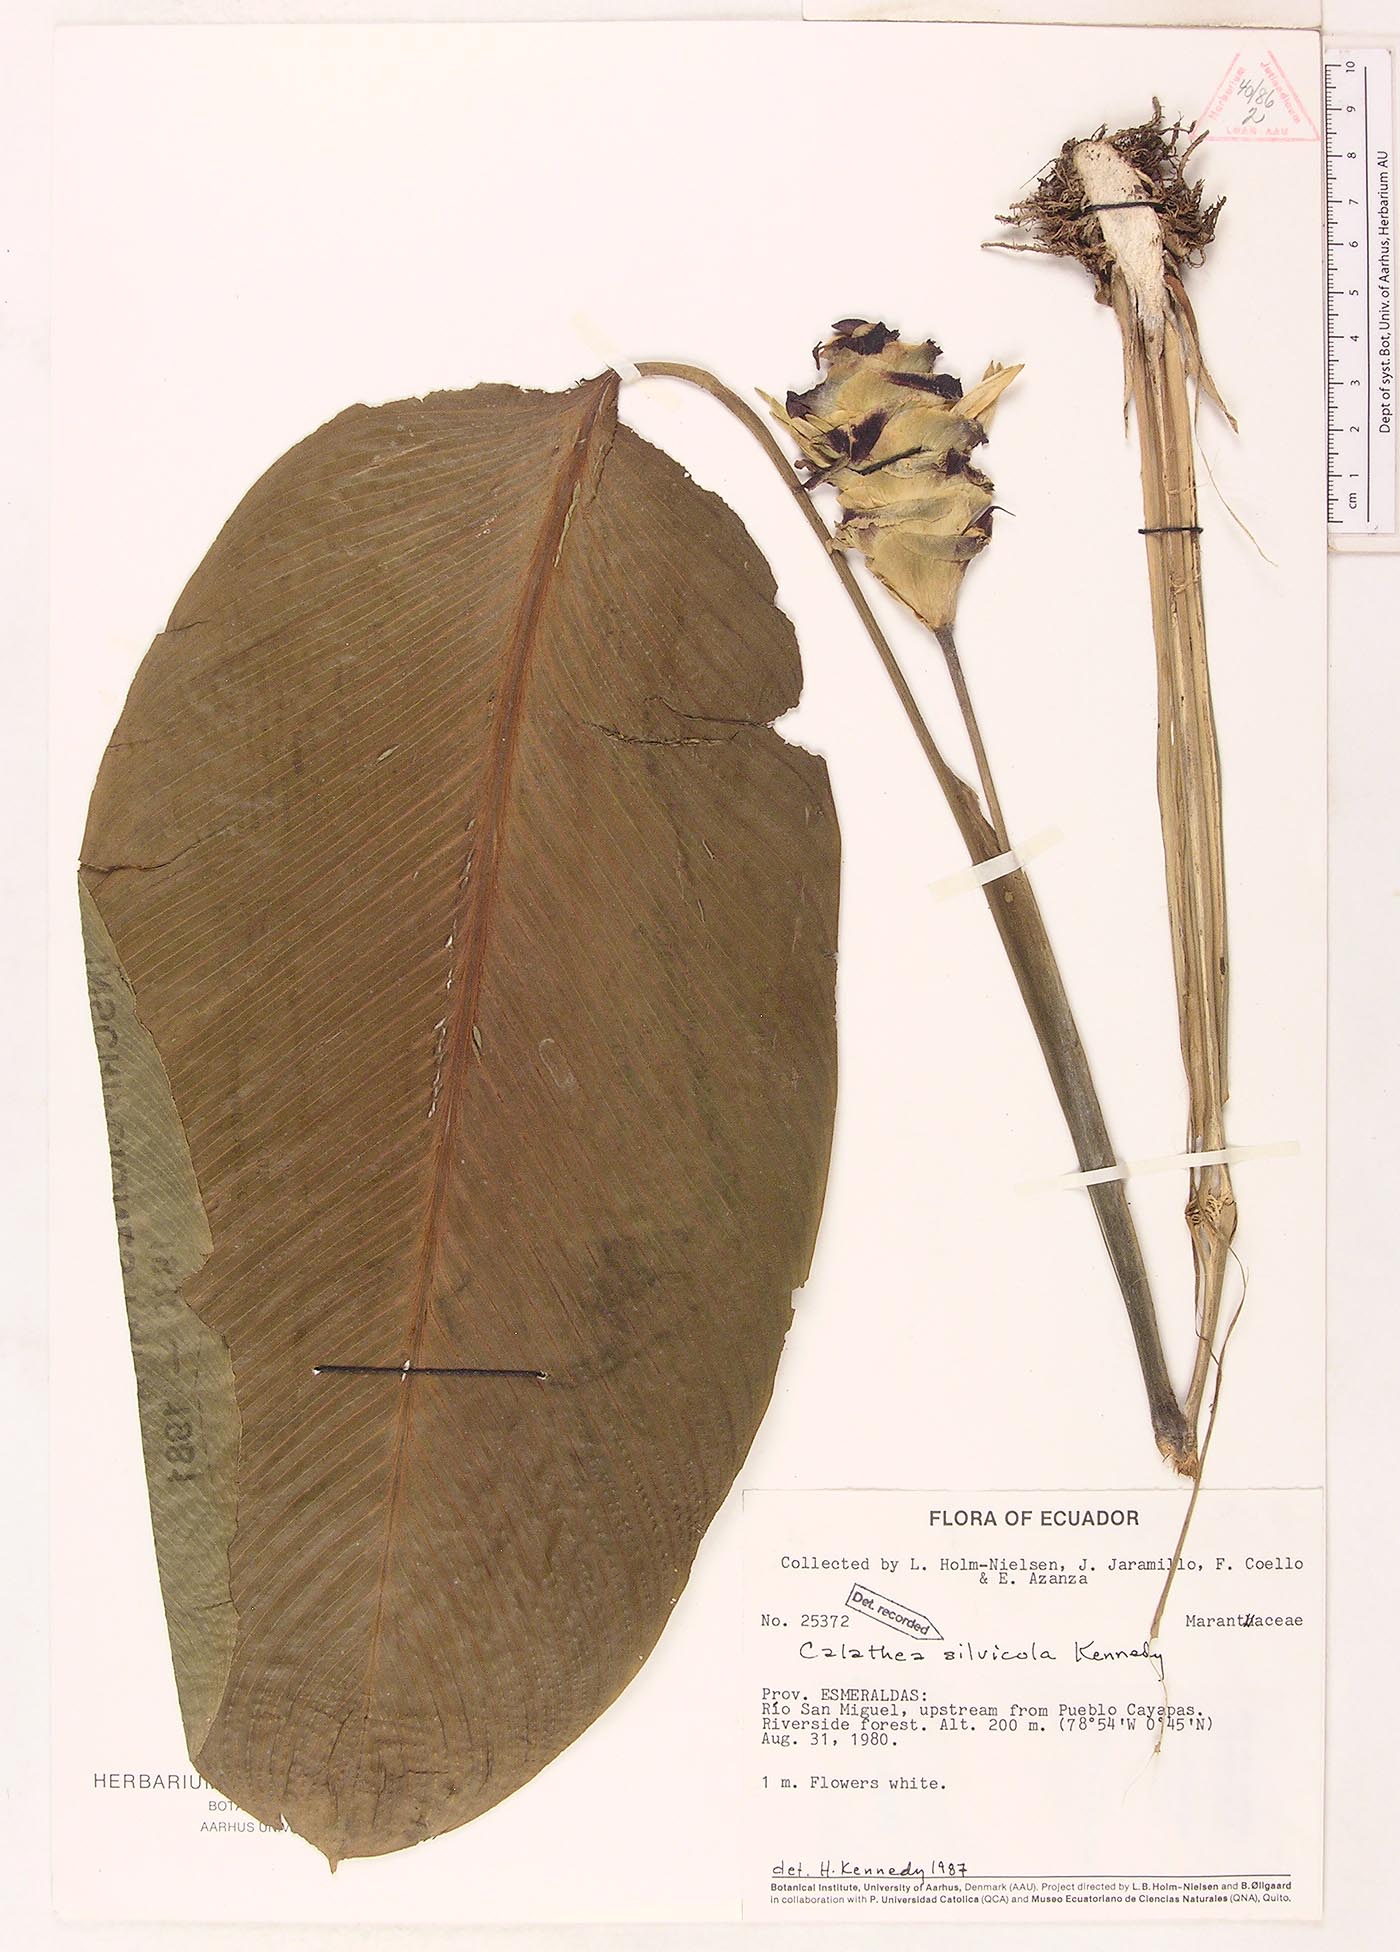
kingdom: Plantae
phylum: Tracheophyta
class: Liliopsida
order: Zingiberales
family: Marantaceae
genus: Goeppertia
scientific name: Goeppertia silvicola
